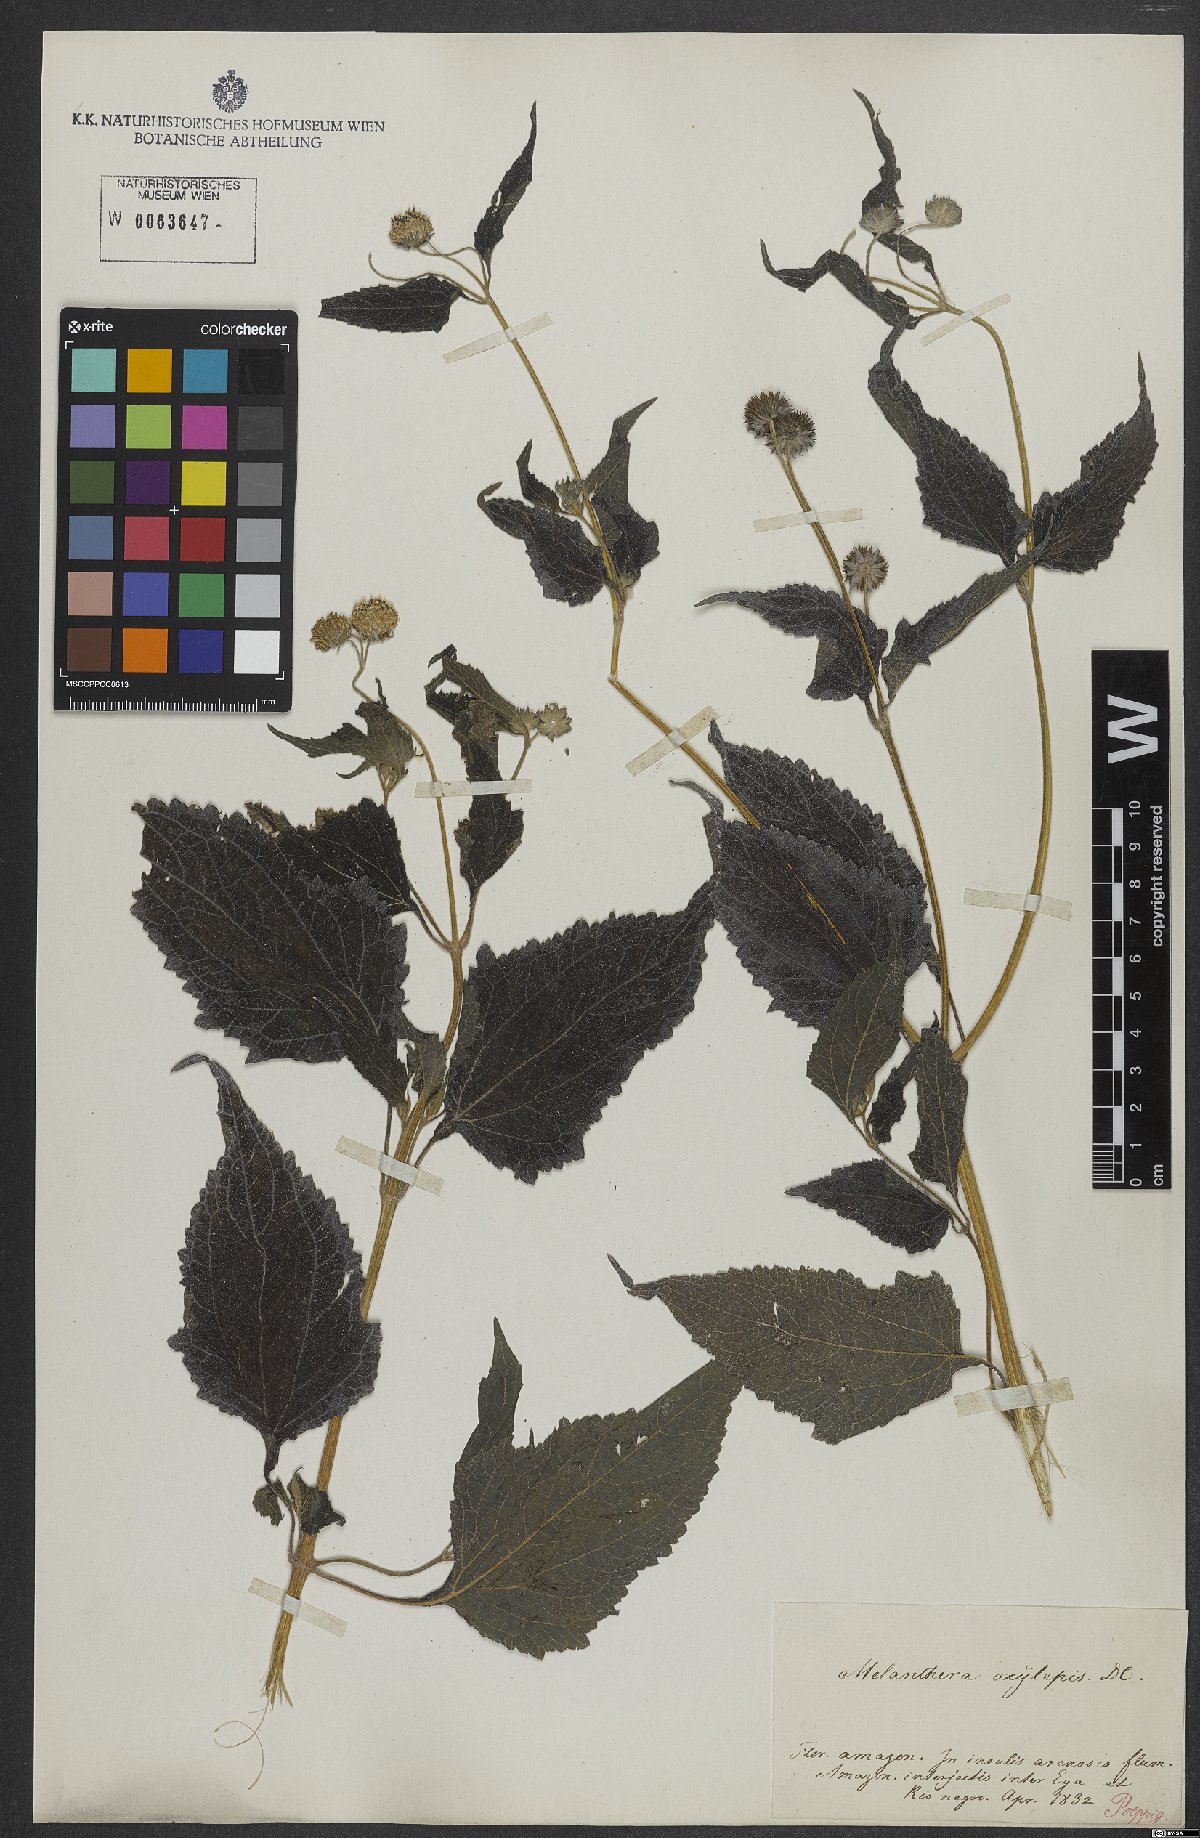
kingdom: Plantae
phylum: Tracheophyta
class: Magnoliopsida
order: Asterales
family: Asteraceae
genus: Melanthera
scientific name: Melanthera nivea
